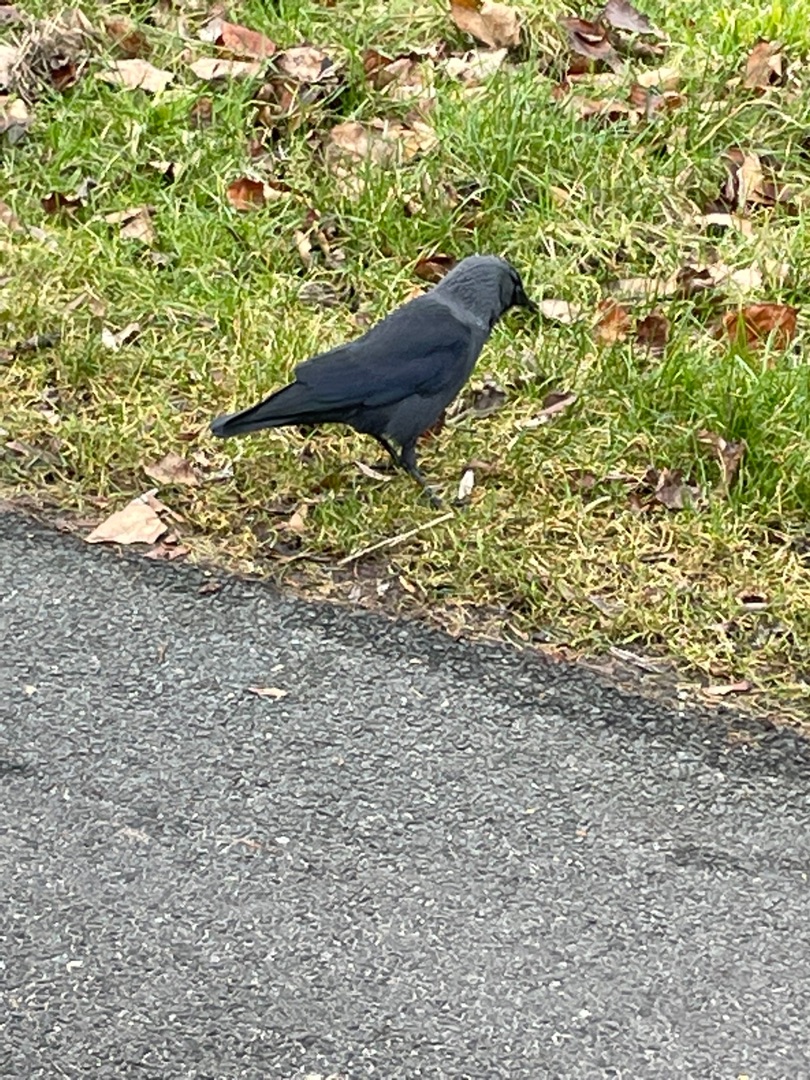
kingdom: Animalia
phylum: Chordata
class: Aves
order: Passeriformes
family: Corvidae
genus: Coloeus
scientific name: Coloeus monedula
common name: Allike
